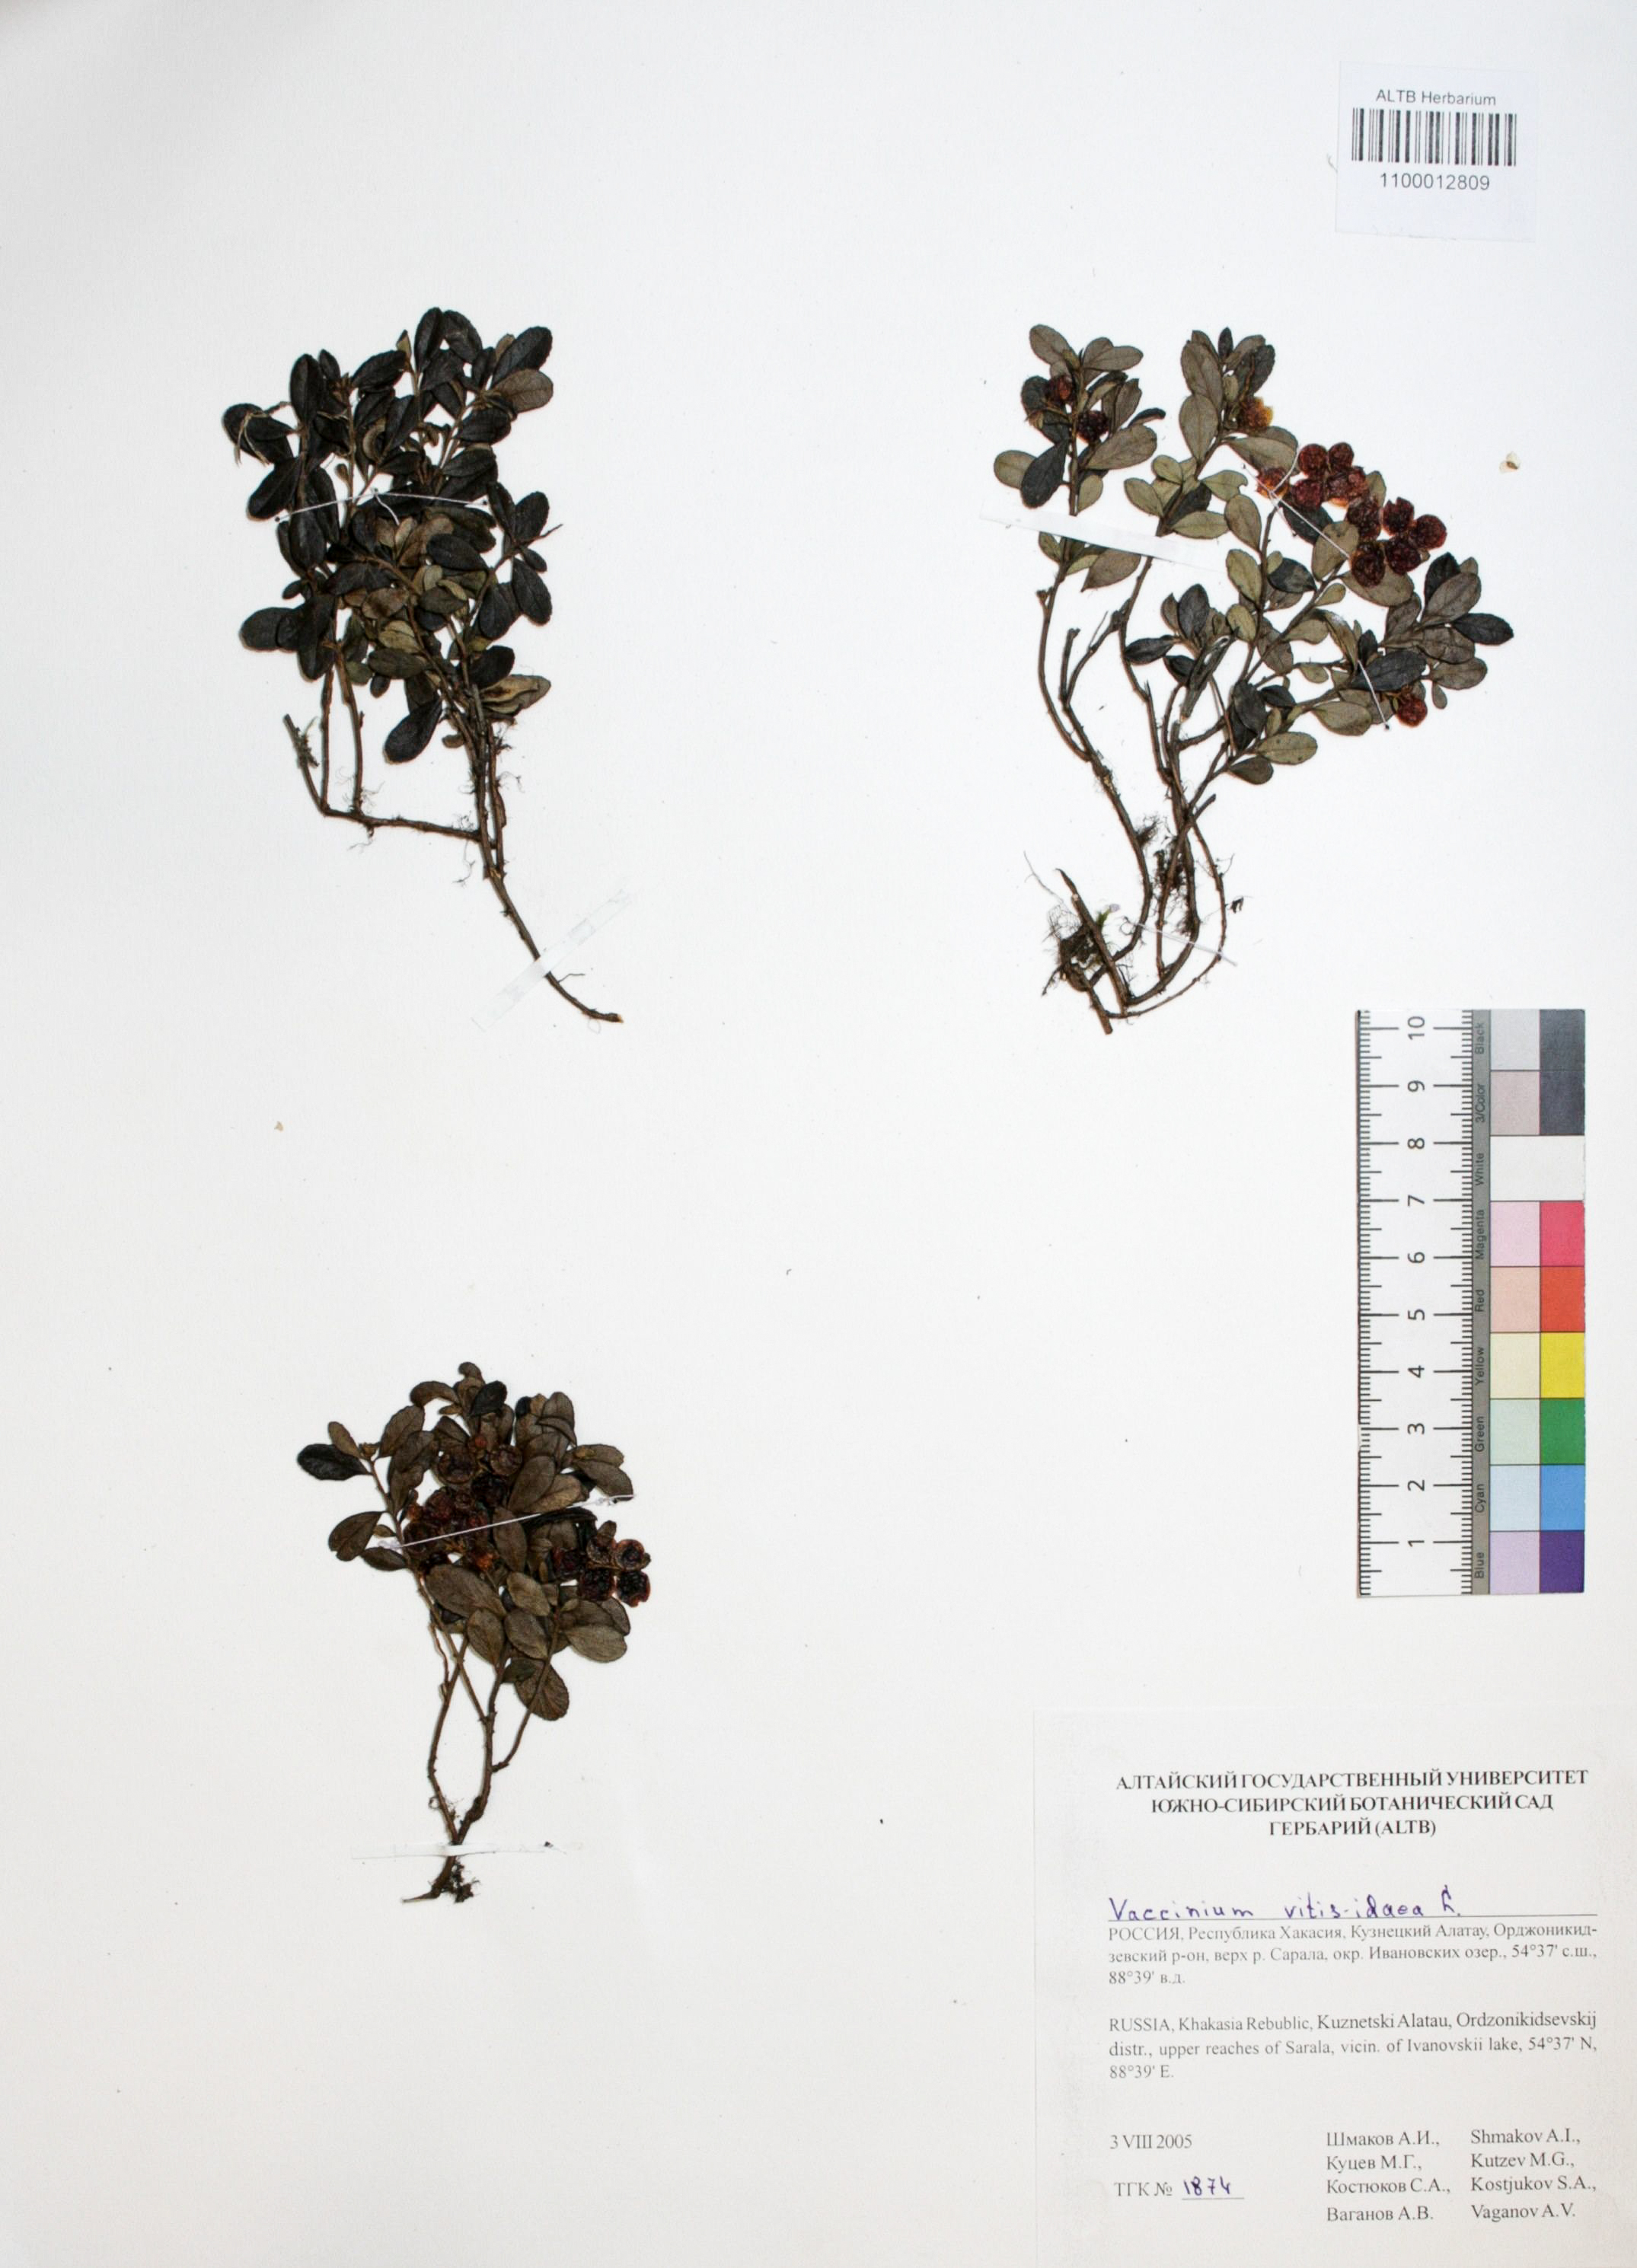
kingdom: Plantae
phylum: Tracheophyta
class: Magnoliopsida
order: Ericales
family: Ericaceae
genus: Vaccinium
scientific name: Vaccinium vitis-idaea
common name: Cowberry
